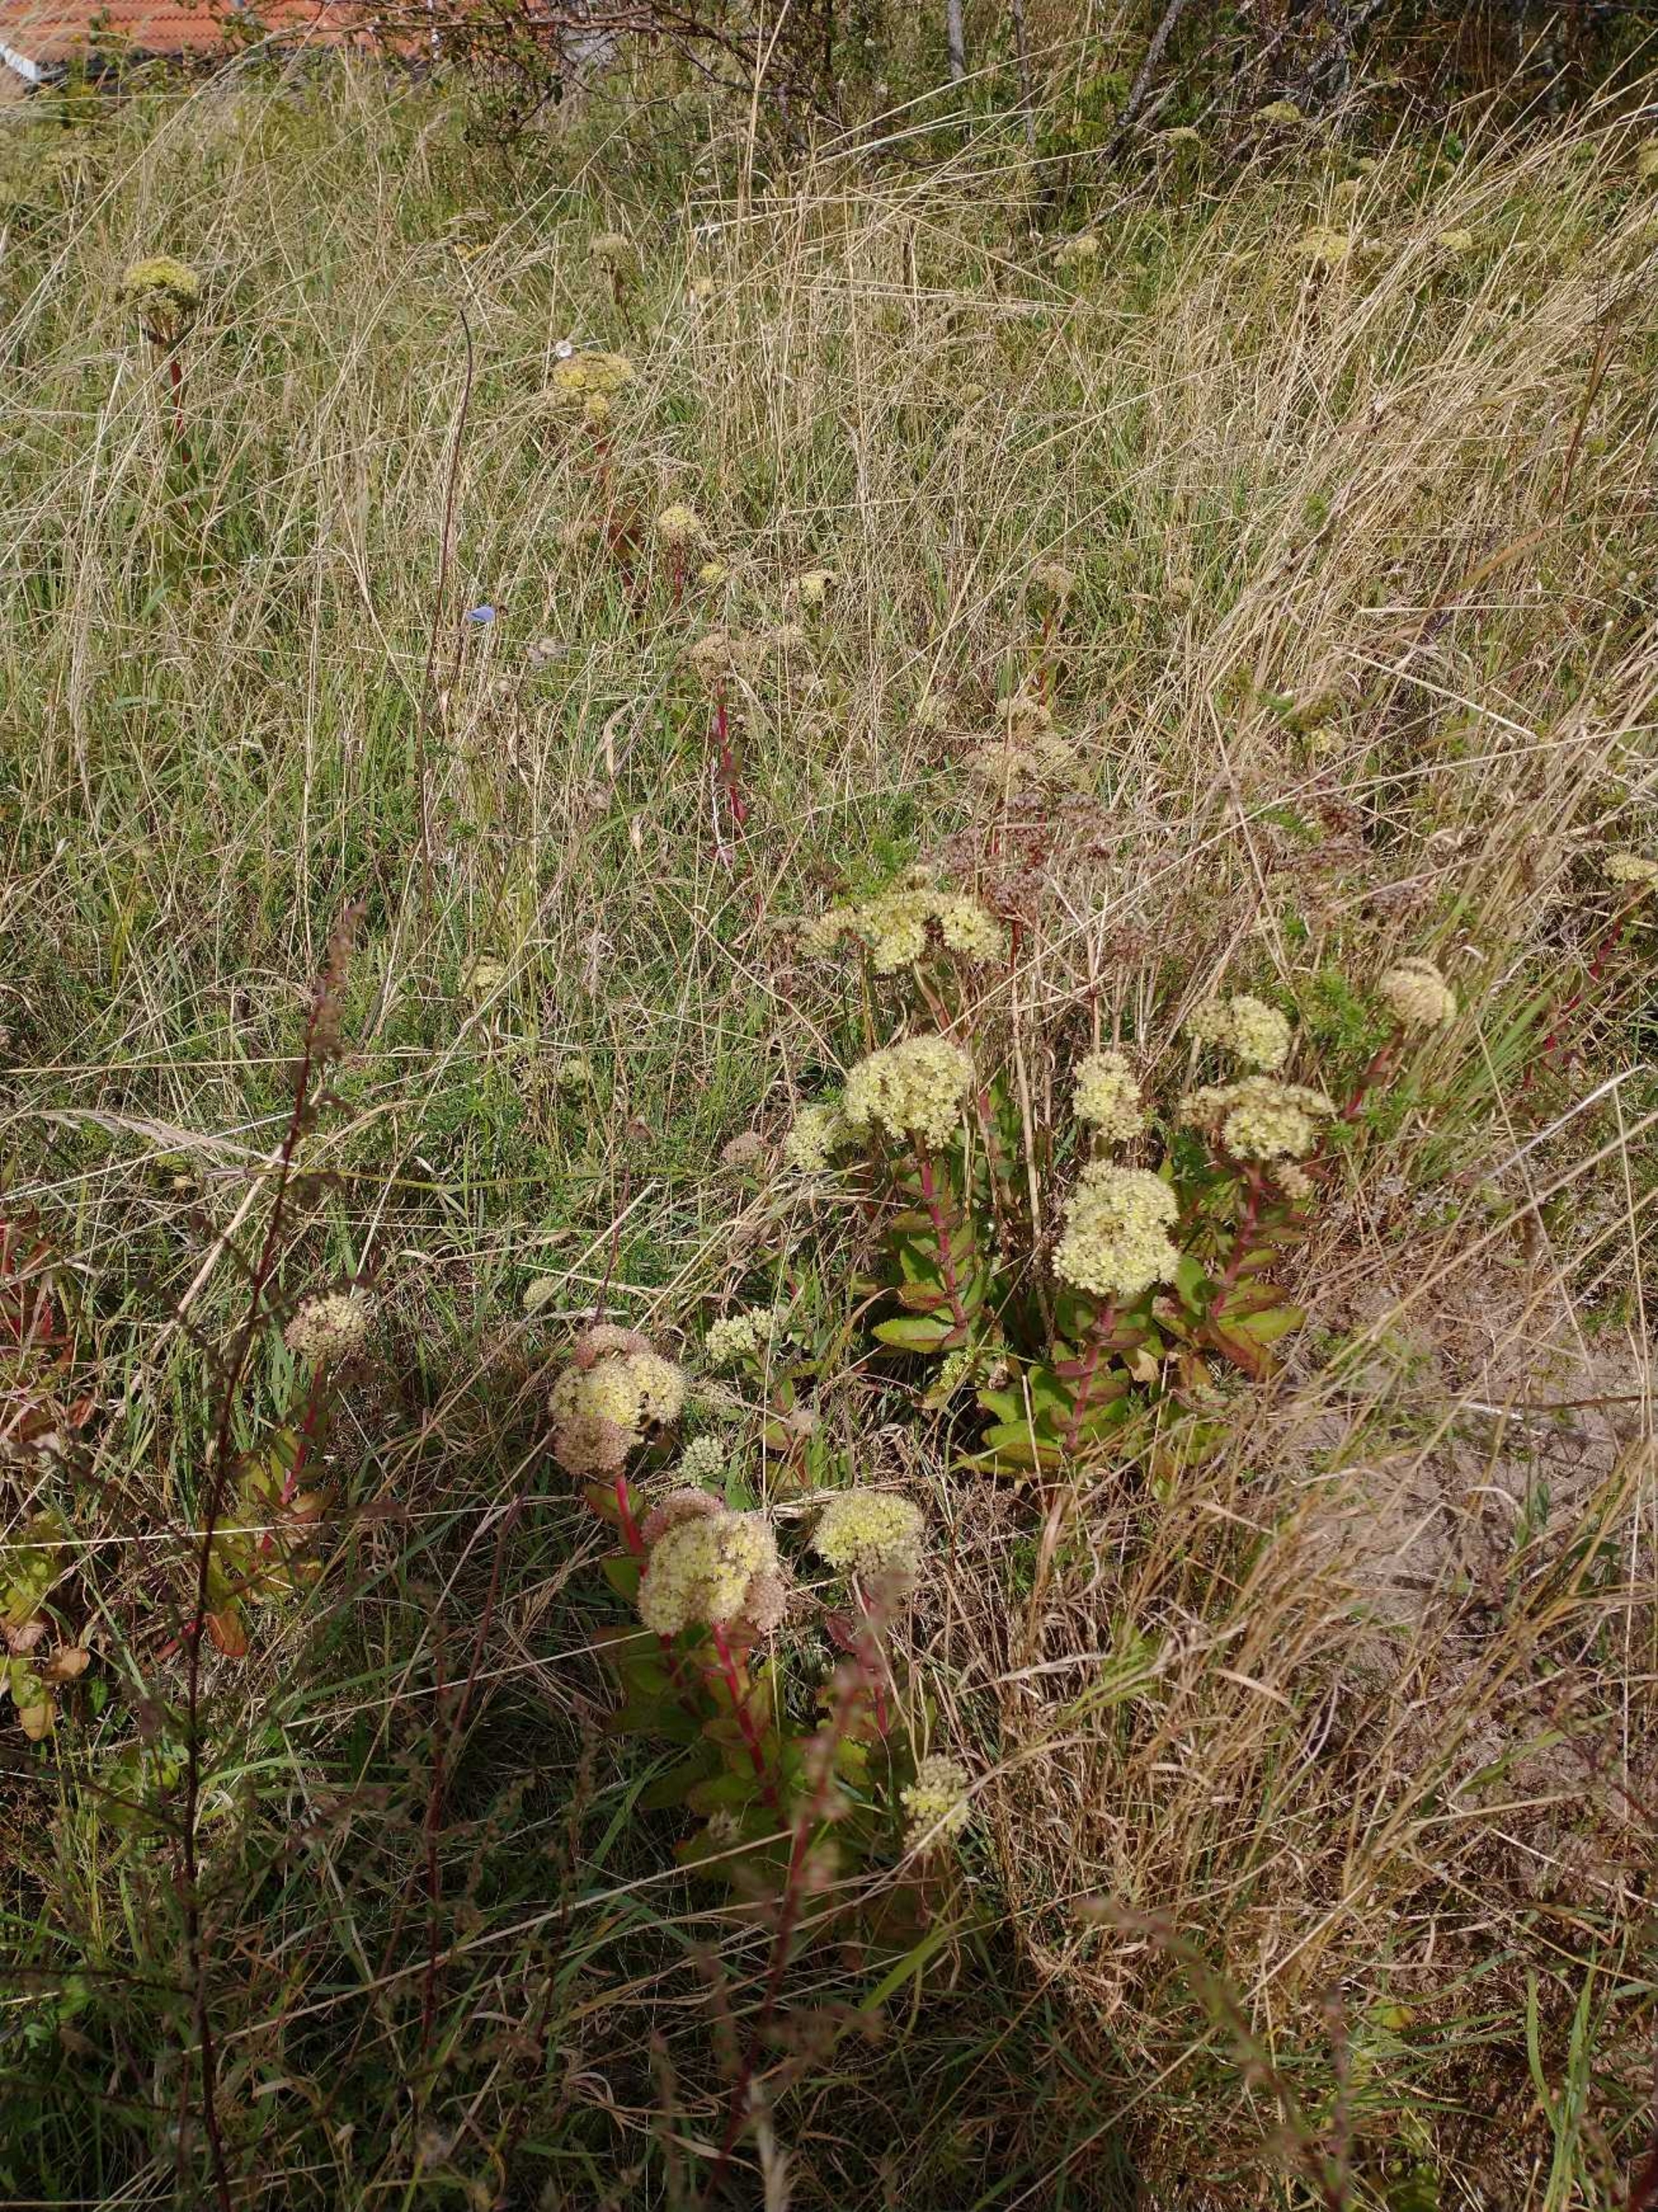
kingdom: Plantae
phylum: Tracheophyta
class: Magnoliopsida
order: Saxifragales
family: Crassulaceae
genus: Hylotelephium
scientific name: Hylotelephium maximum
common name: Almindelig sankthansurt
